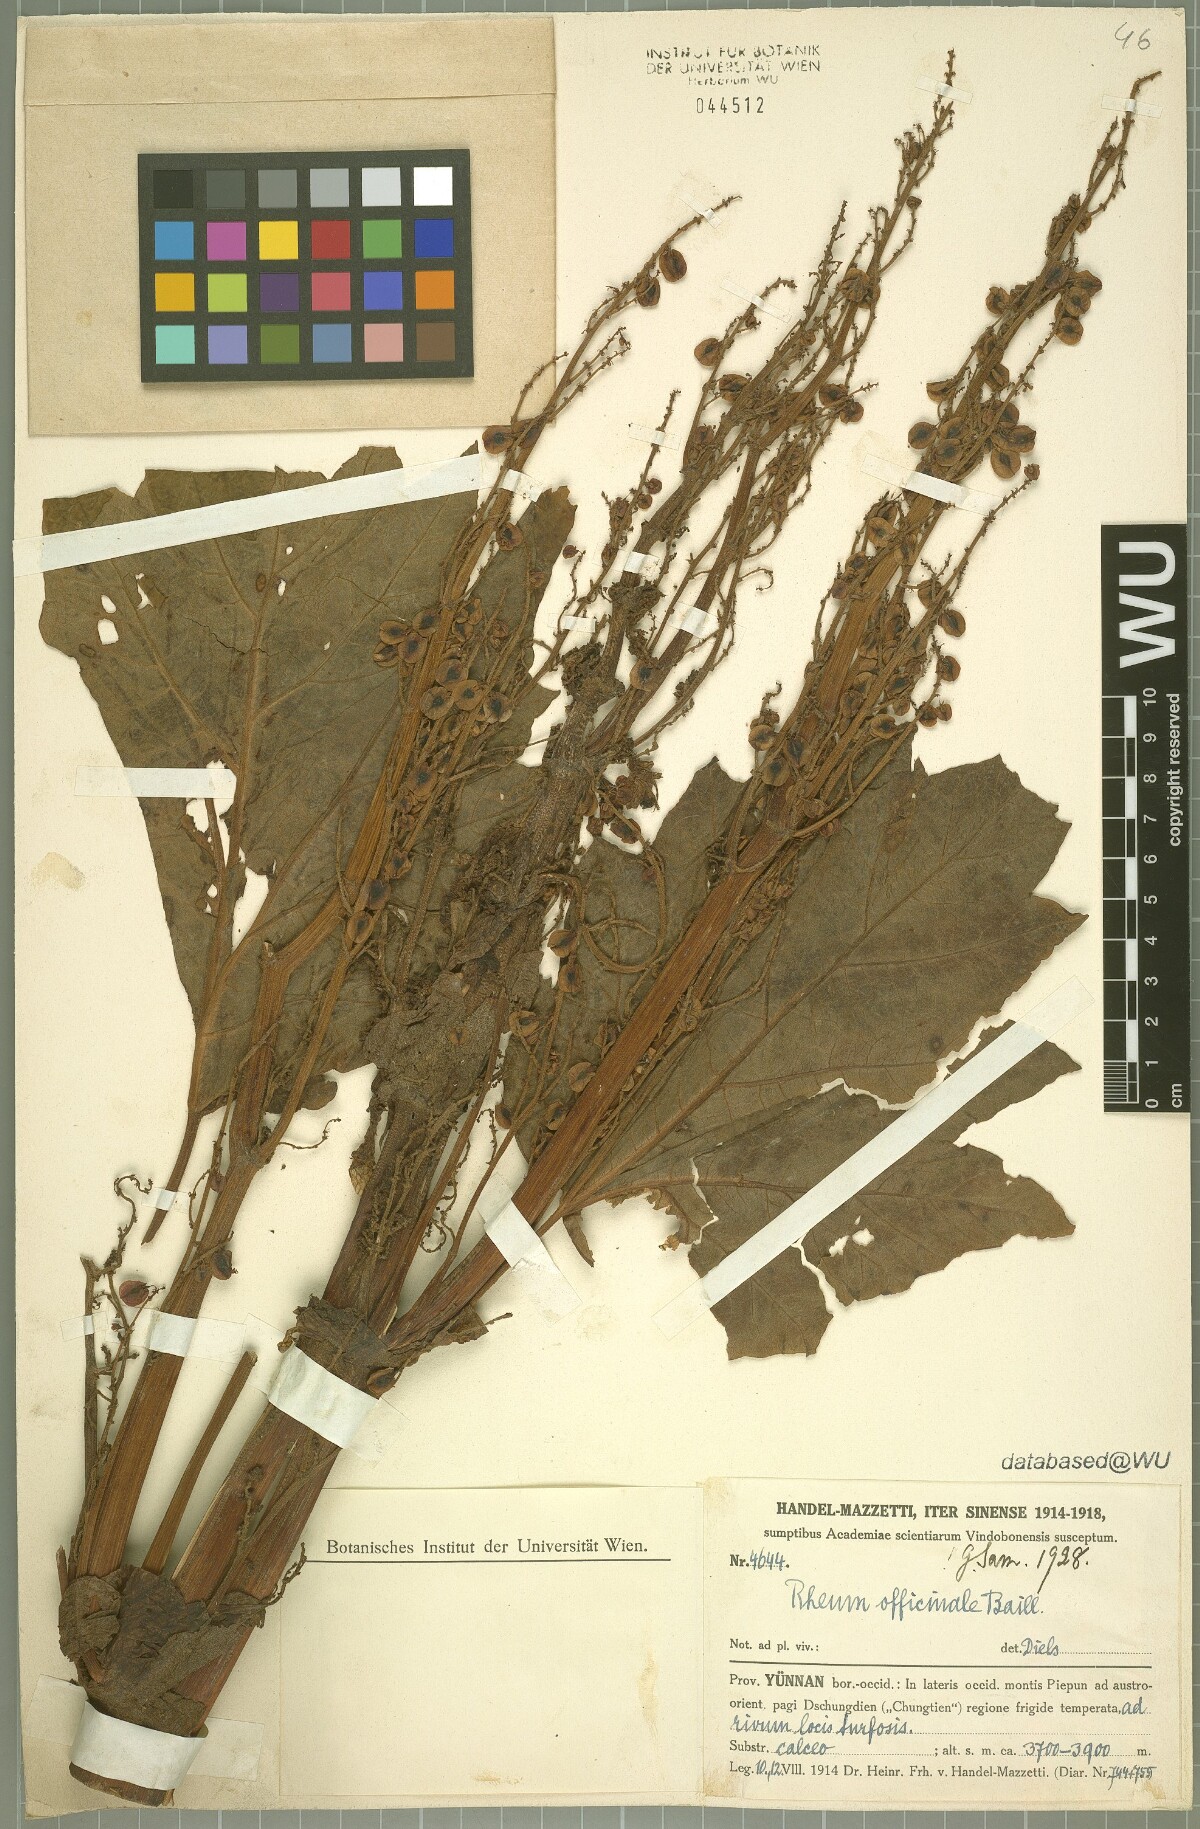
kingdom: Plantae
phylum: Tracheophyta
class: Magnoliopsida
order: Caryophyllales
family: Polygonaceae
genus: Rheum
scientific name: Rheum officinale
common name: Tibetan rhubarb
